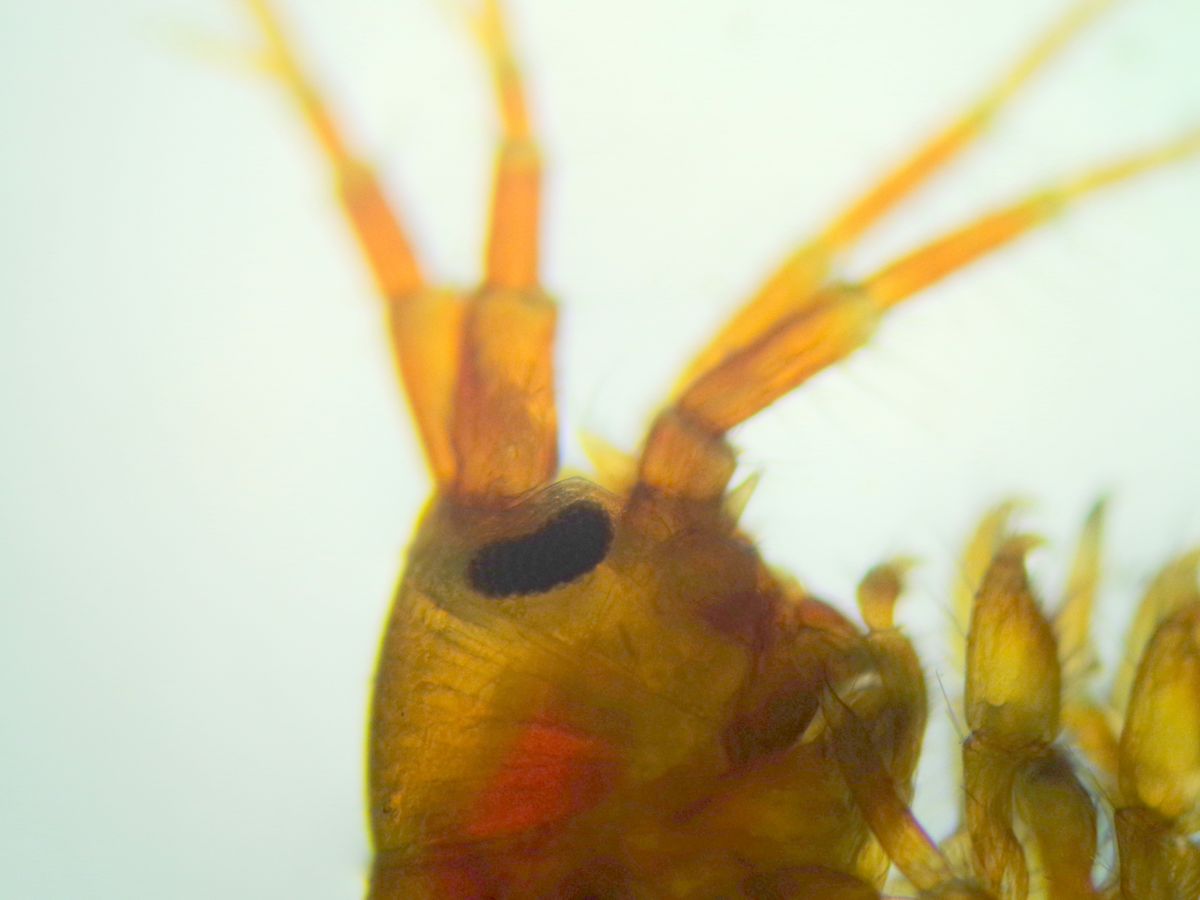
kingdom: Animalia
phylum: Arthropoda
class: Malacostraca
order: Amphipoda
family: Gammaridae
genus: Gammarus
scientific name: Gammarus duebeni
